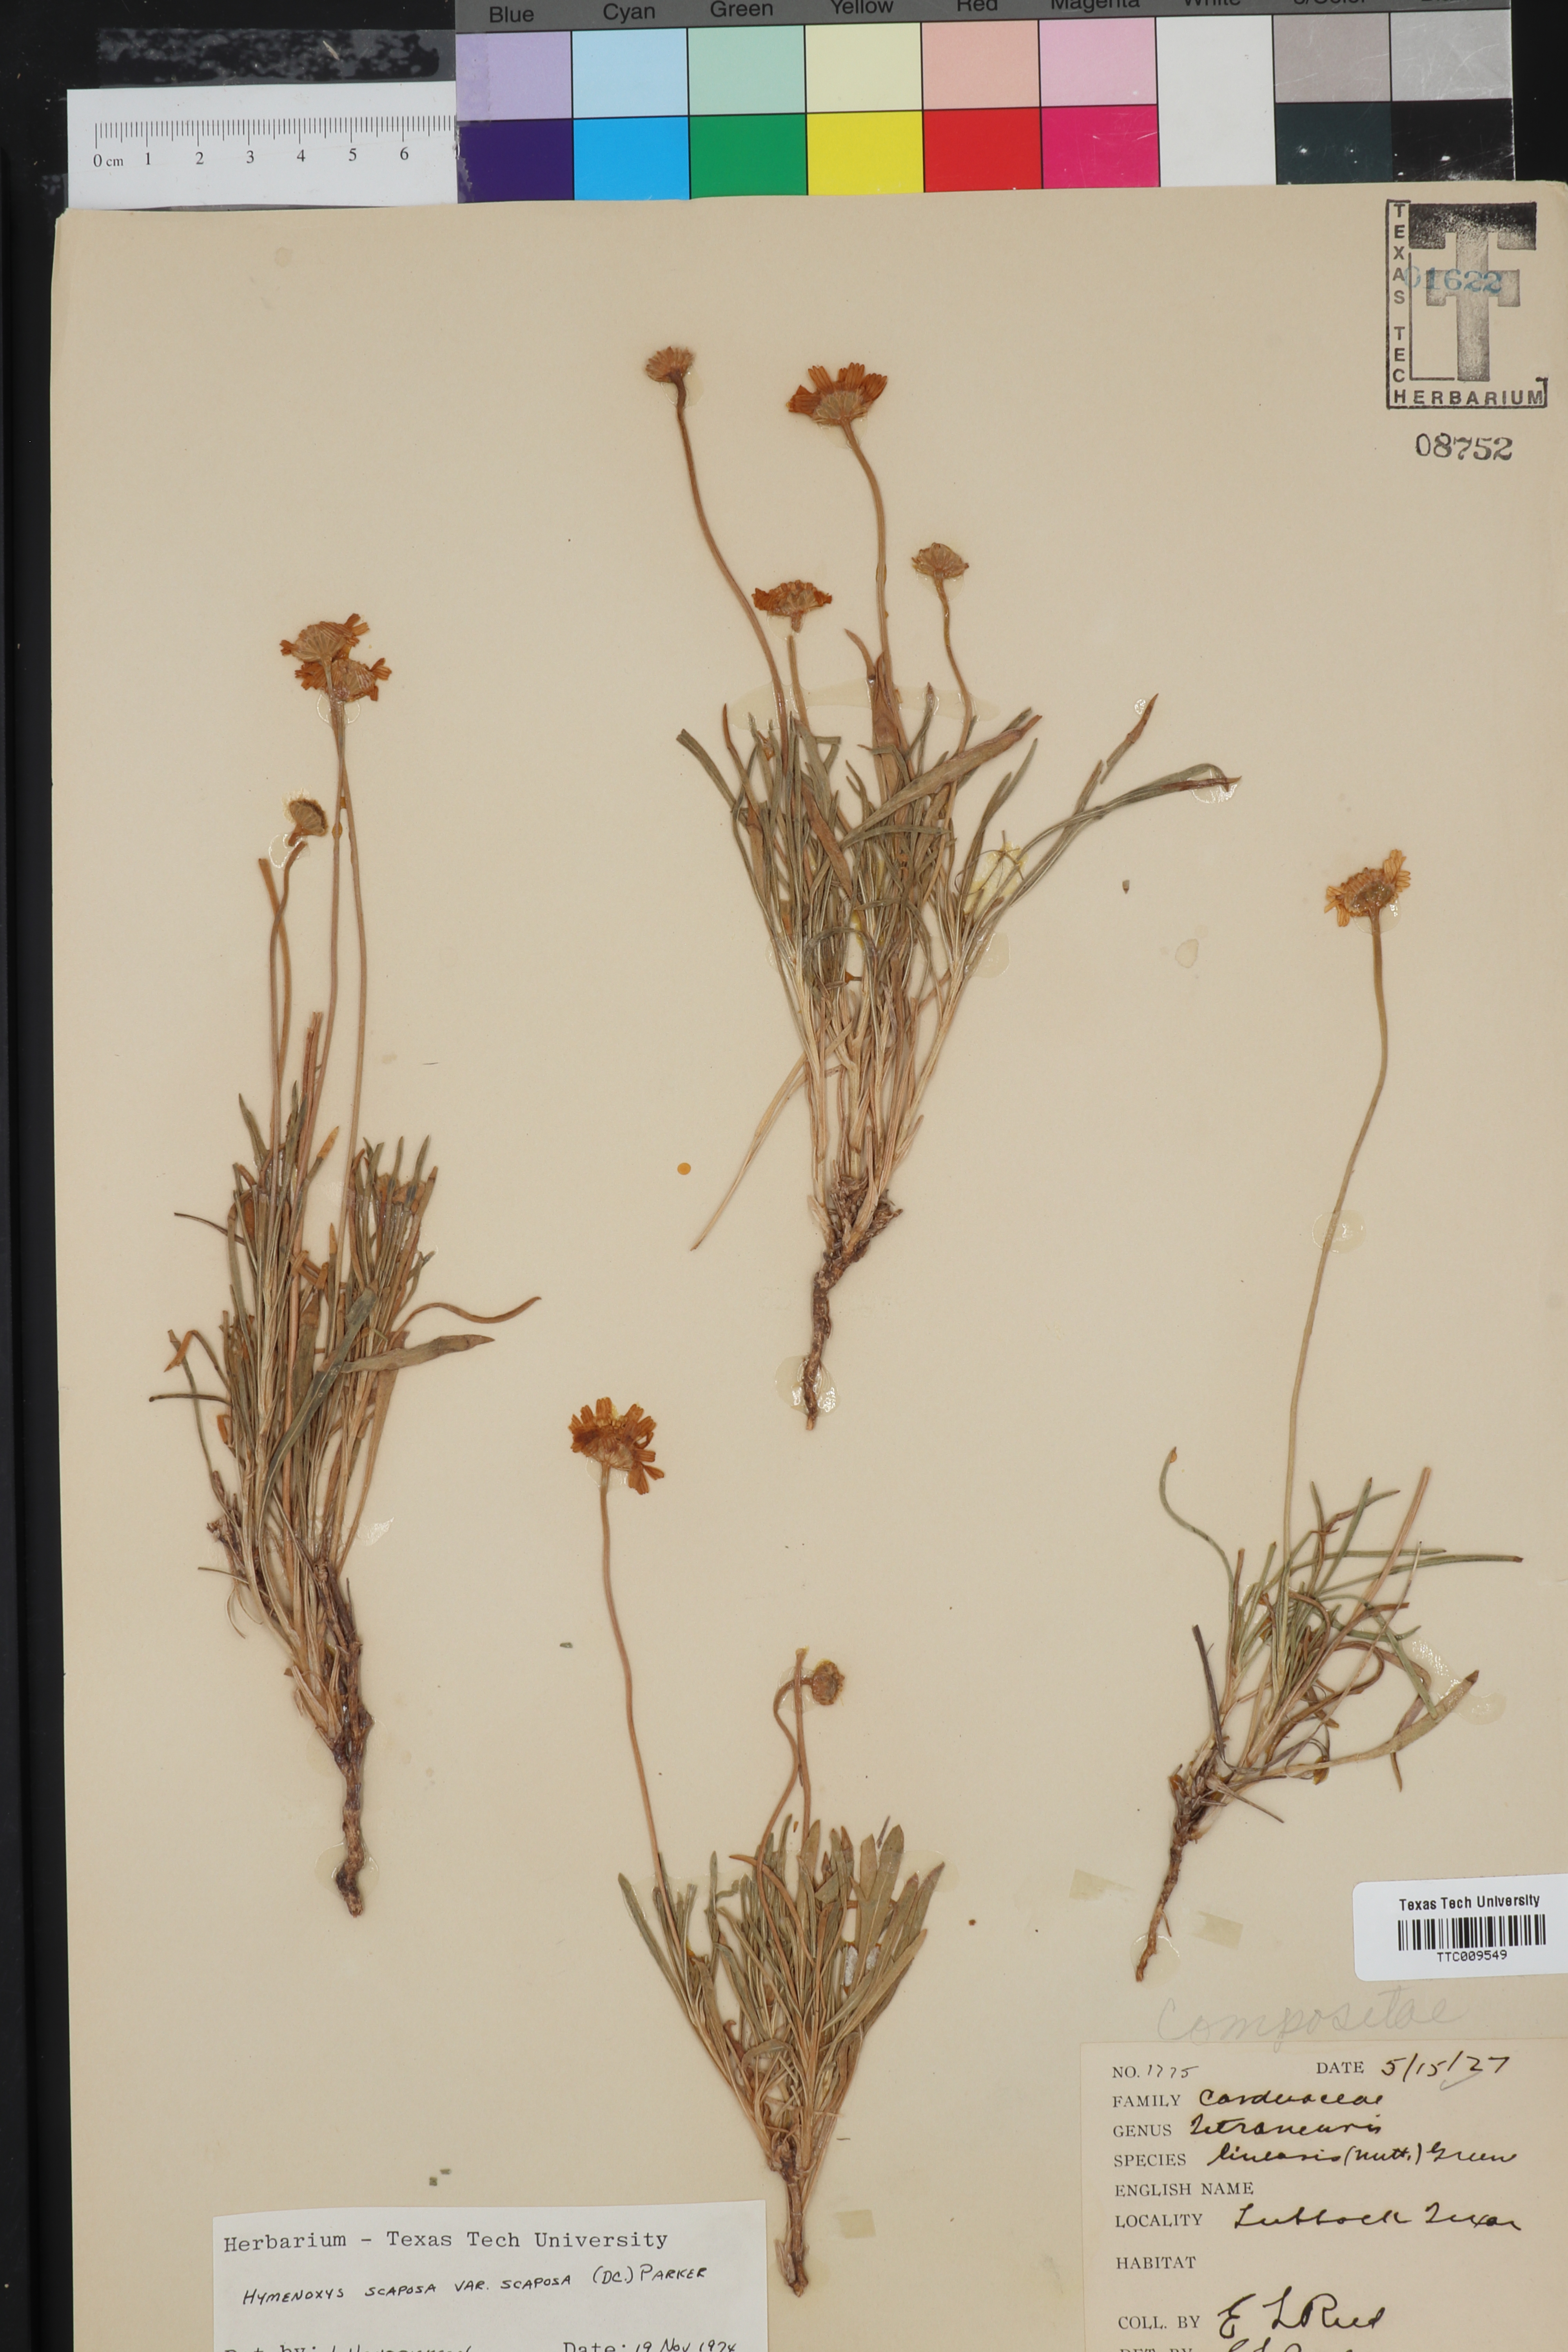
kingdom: Plantae
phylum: Tracheophyta
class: Magnoliopsida
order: Asterales
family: Asteraceae
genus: Tetraneuris
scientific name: Tetraneuris scaposa
